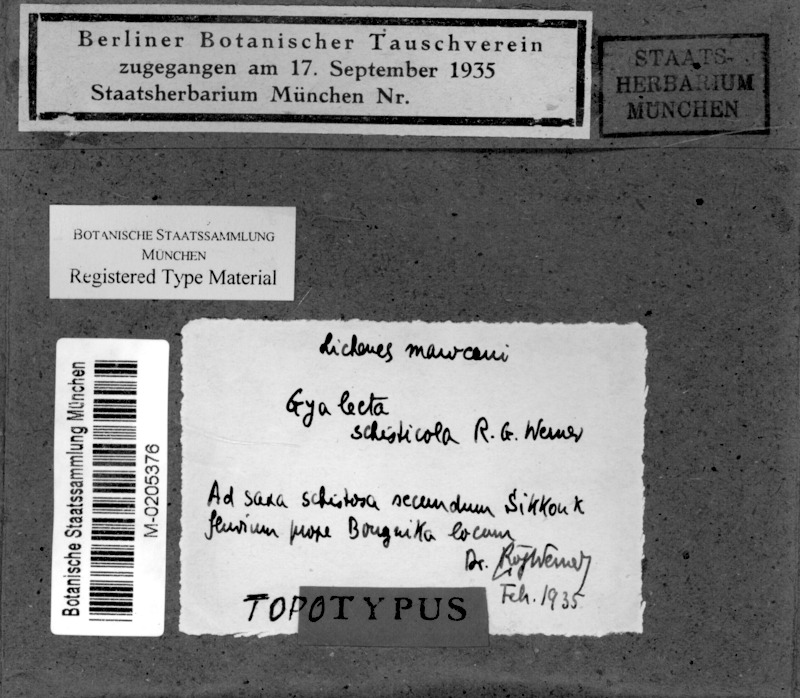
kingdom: Fungi
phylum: Ascomycota
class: Lecanoromycetes
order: Gyalectales
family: Gyalectaceae
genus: Gyalecta
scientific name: Gyalecta schisticola
